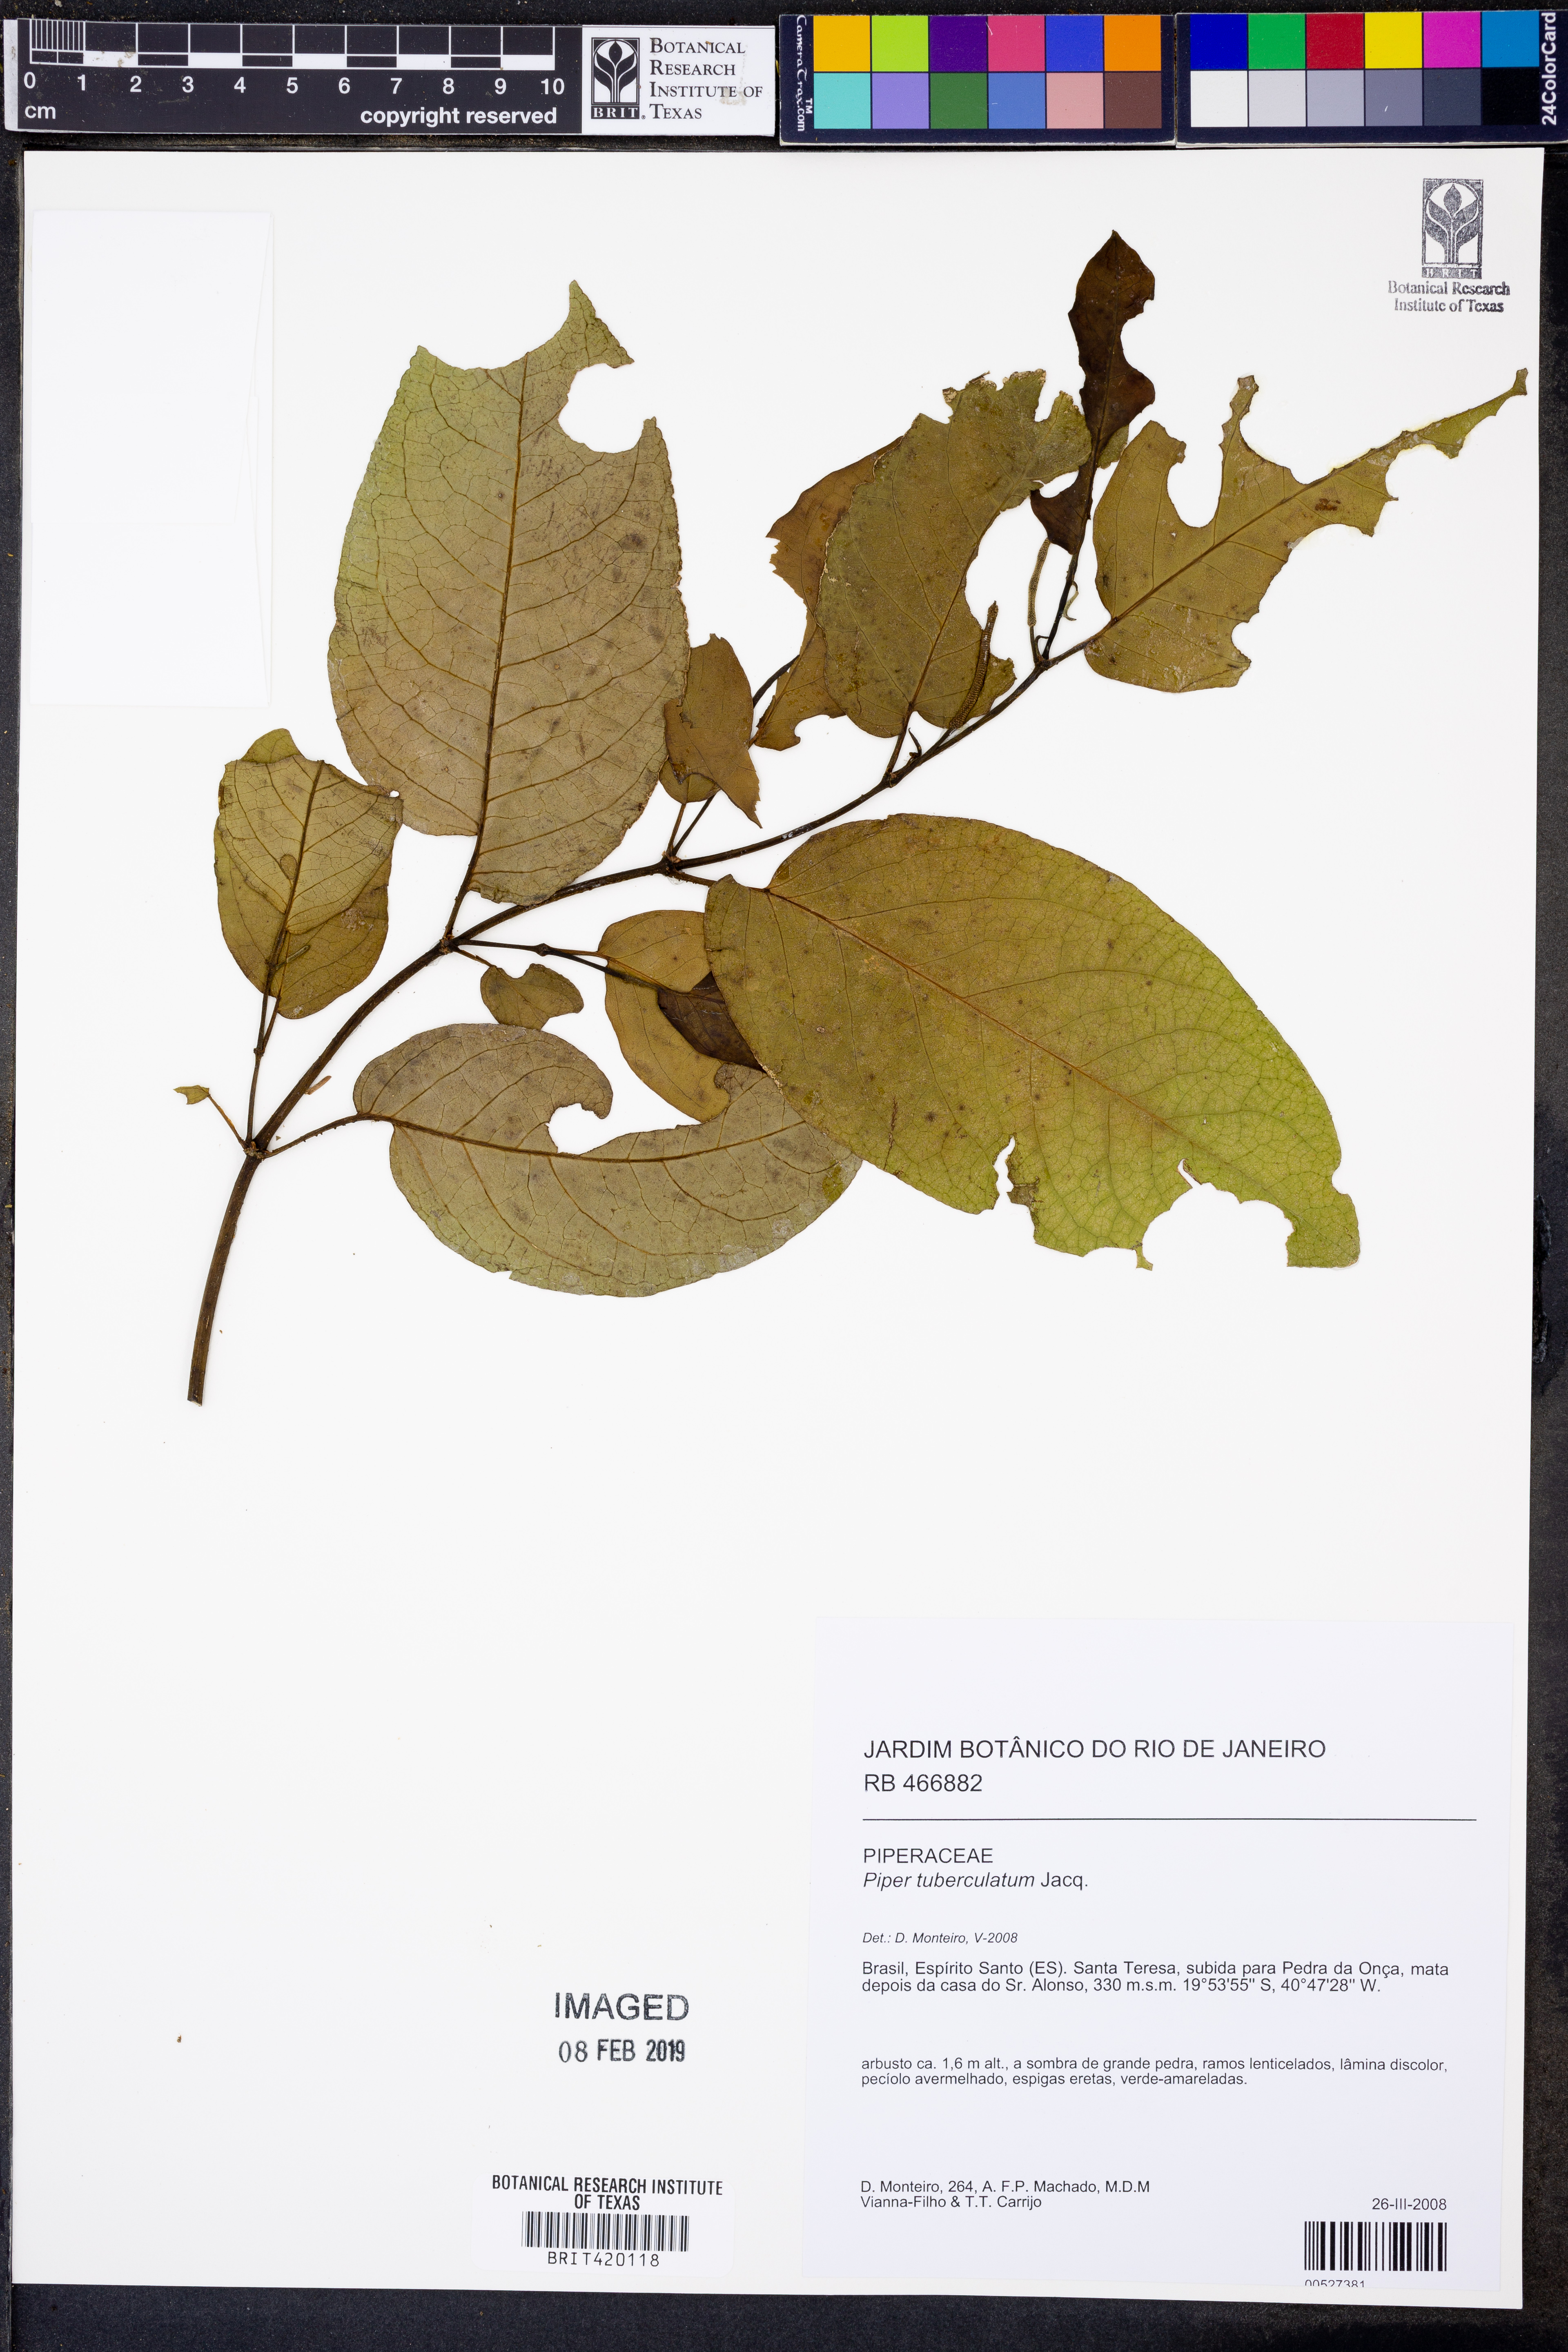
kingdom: Plantae
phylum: Tracheophyta
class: Magnoliopsida
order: Piperales
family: Piperaceae
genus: Piper
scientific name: Piper tuberculatum
